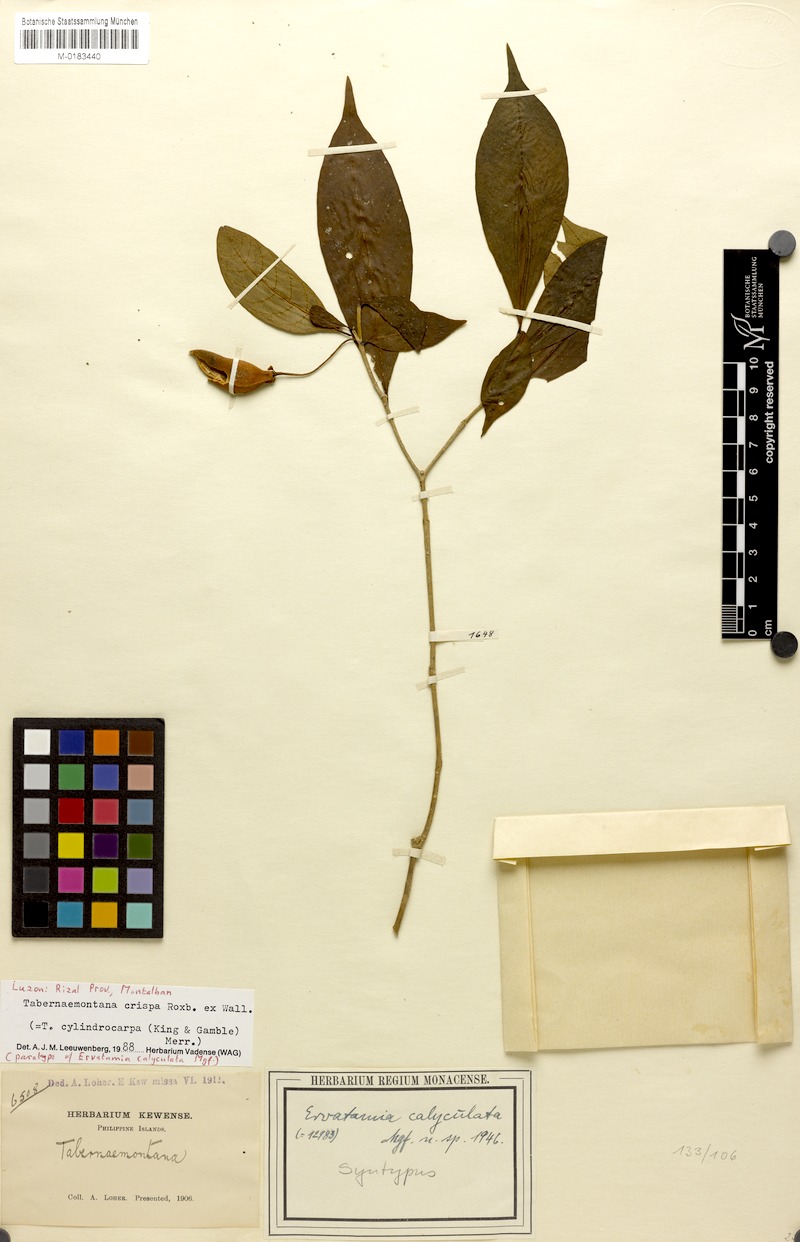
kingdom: Plantae
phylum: Tracheophyta
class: Magnoliopsida
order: Gentianales
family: Apocynaceae
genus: Tabernaemontana
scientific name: Tabernaemontana rostrata
